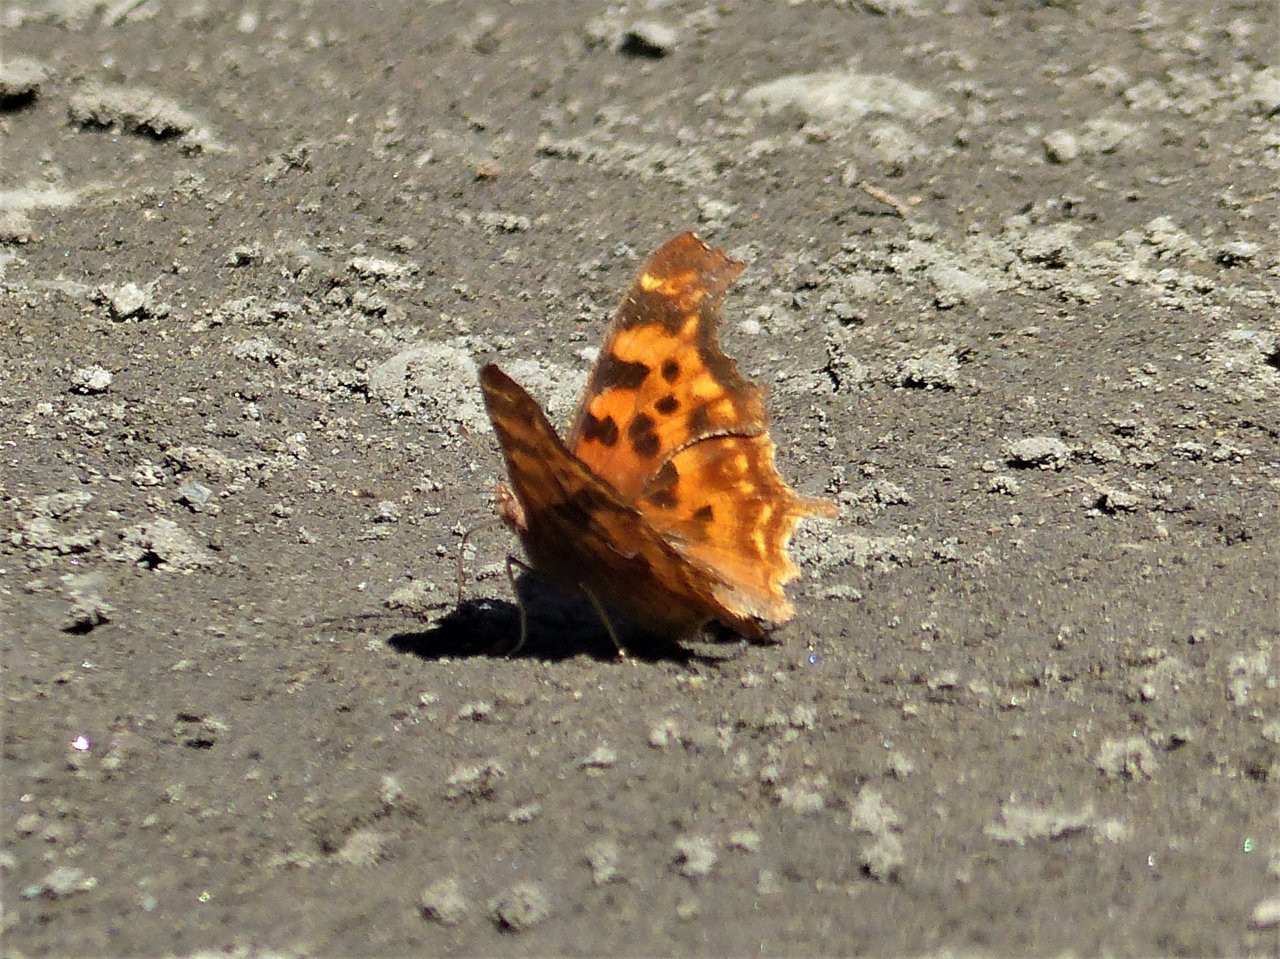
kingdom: Animalia
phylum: Arthropoda
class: Insecta
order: Lepidoptera
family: Nymphalidae
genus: Polygonia
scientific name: Polygonia satyrus
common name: Satyr Comma
